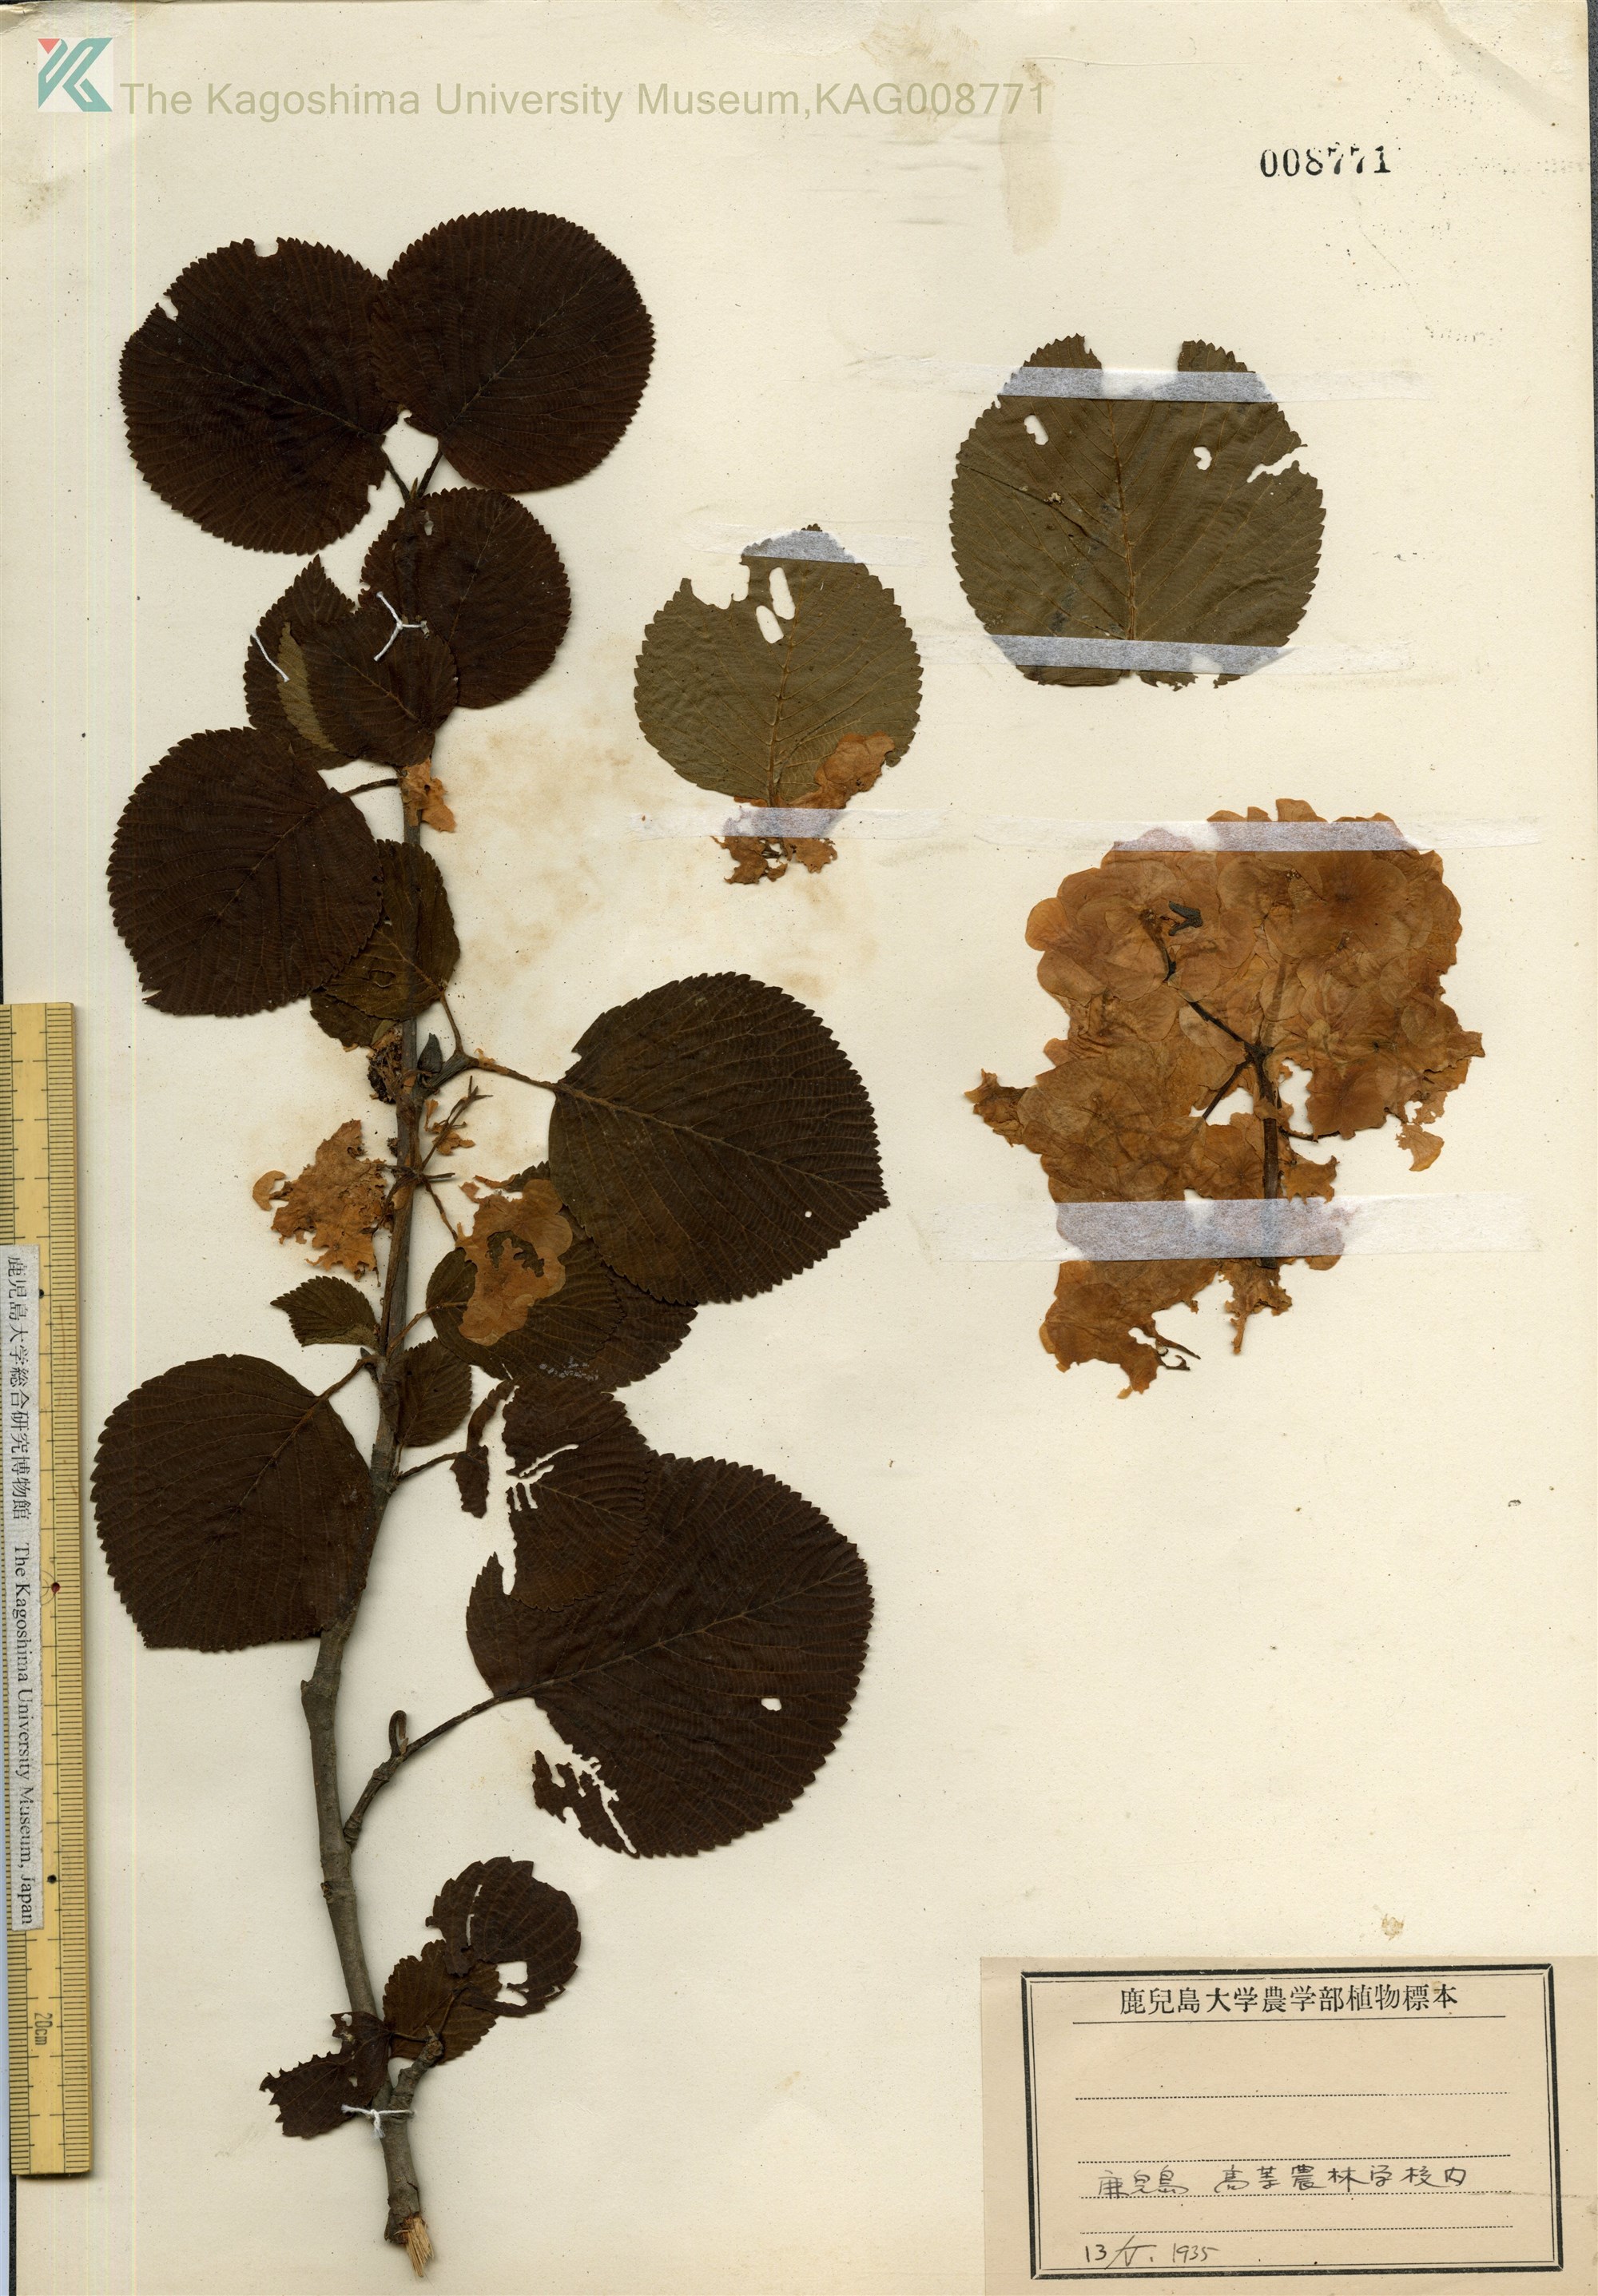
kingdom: Plantae
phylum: Tracheophyta
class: Magnoliopsida
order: Dipsacales
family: Viburnaceae
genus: Viburnum
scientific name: Viburnum plicatum
